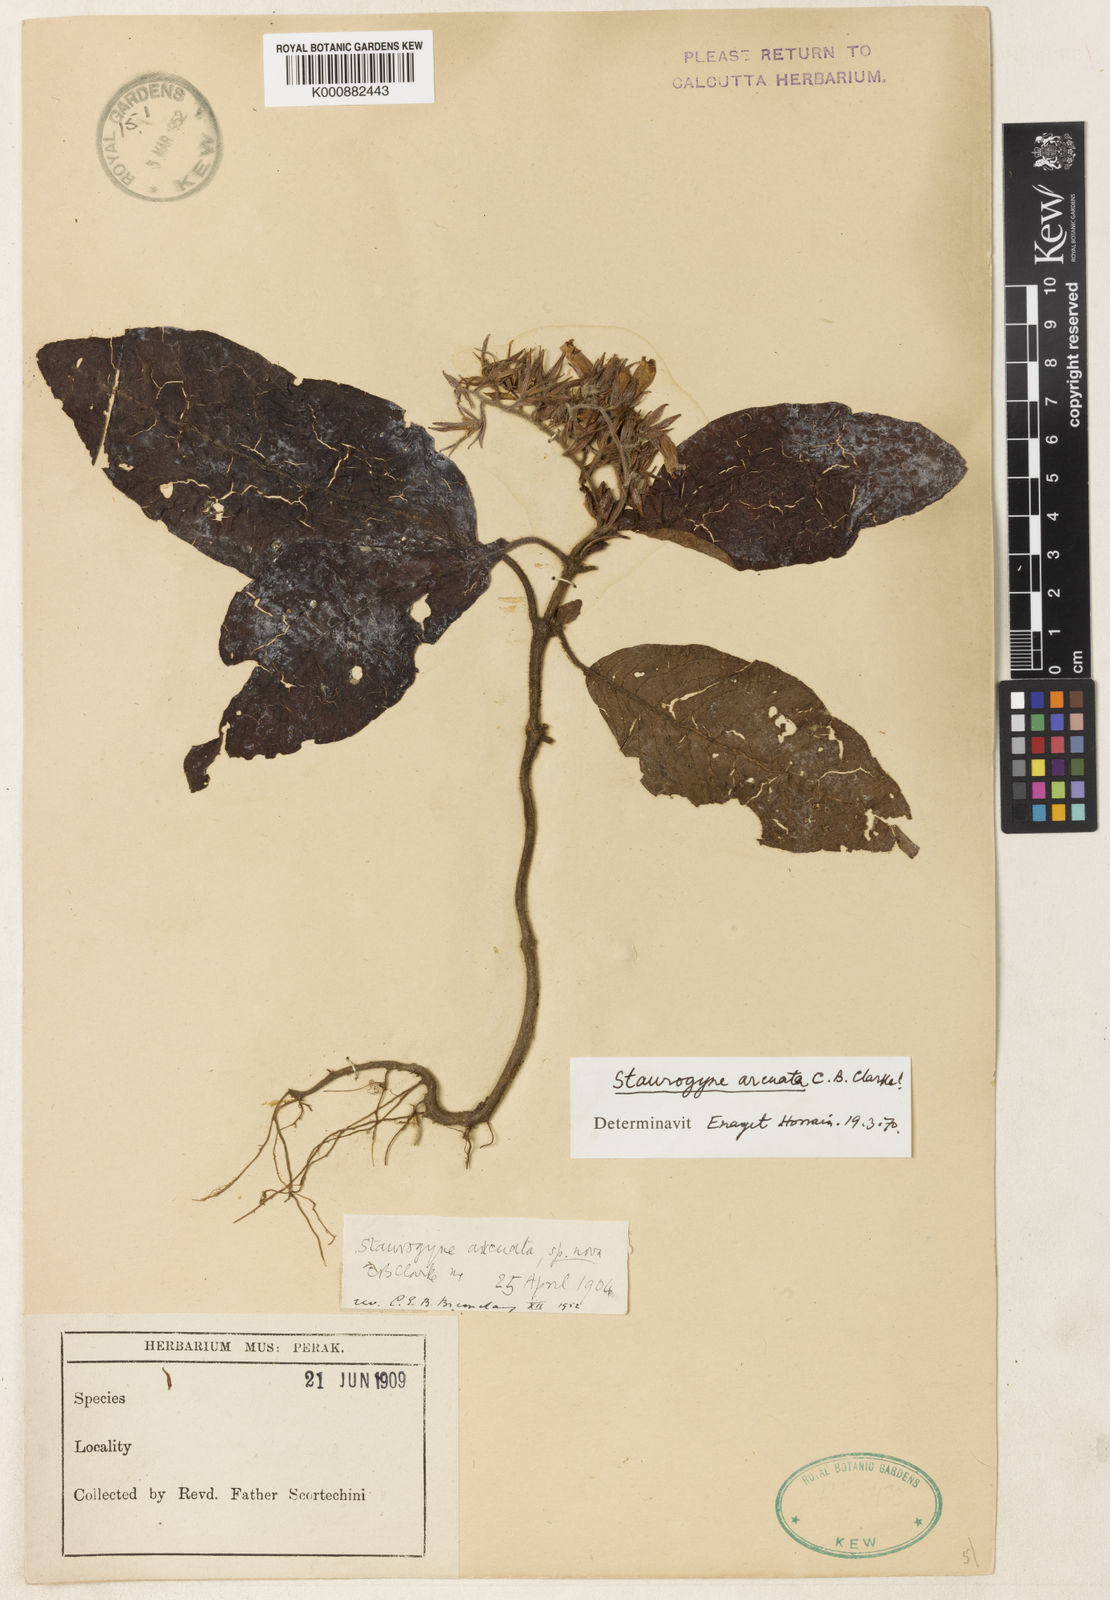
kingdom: Plantae
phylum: Tracheophyta
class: Magnoliopsida
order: Lamiales
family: Acanthaceae
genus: Staurogyne
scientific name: Staurogyne arcuata
